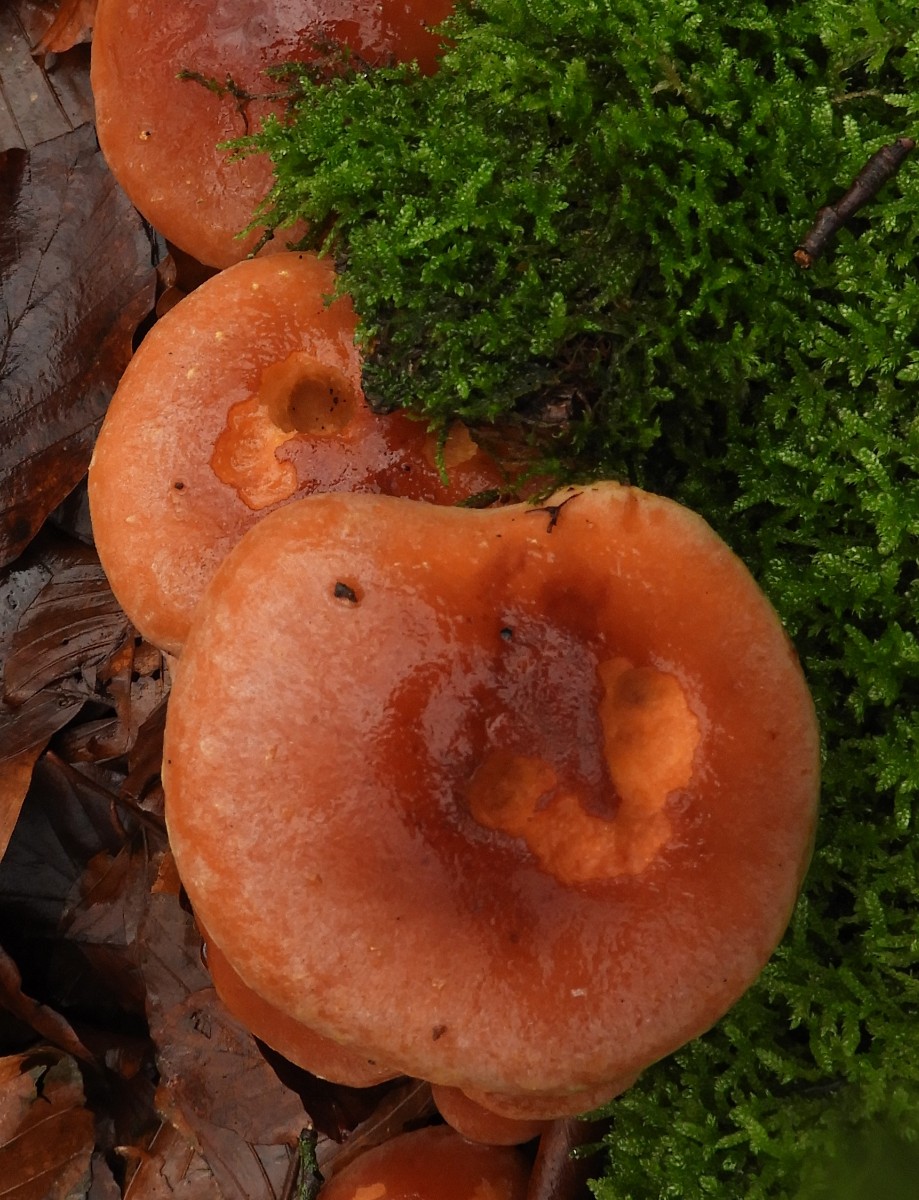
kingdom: Fungi
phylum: Basidiomycota
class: Agaricomycetes
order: Agaricales
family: Strophariaceae
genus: Hypholoma
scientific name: Hypholoma lateritium
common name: teglrød svovlhat
